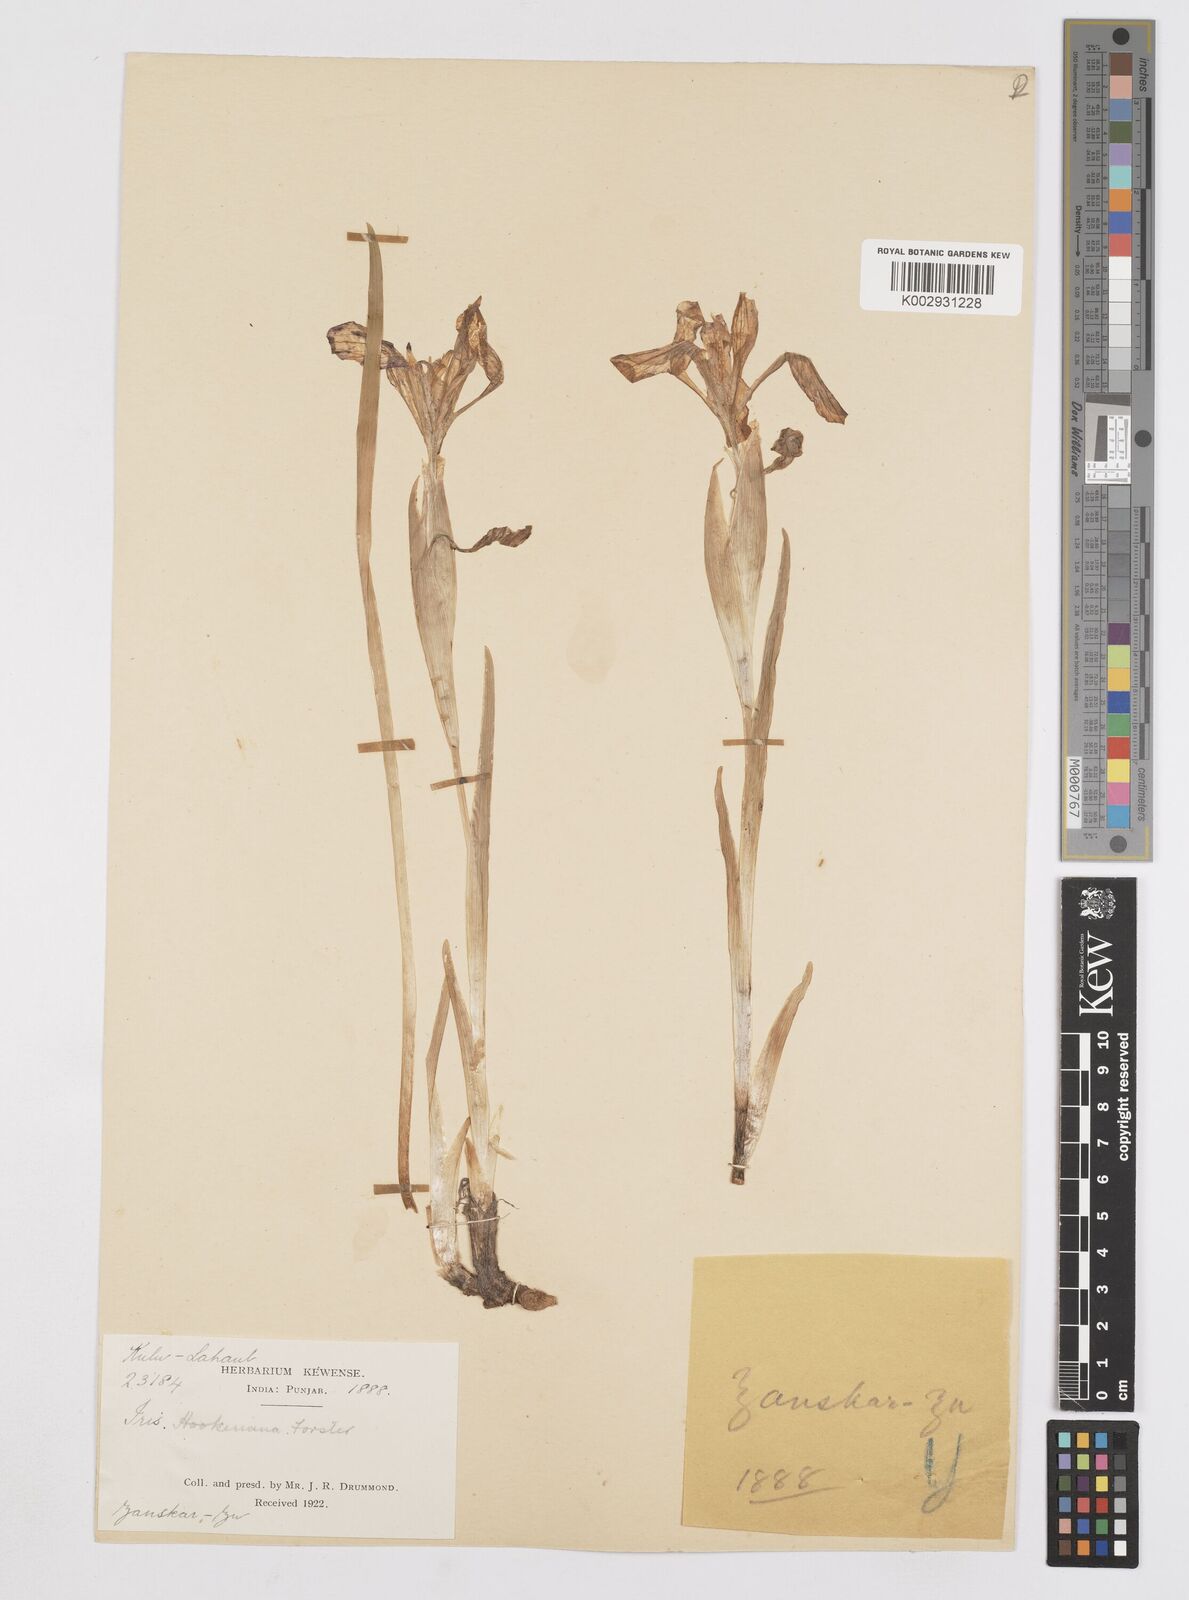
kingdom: Plantae
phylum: Tracheophyta
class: Liliopsida
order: Asparagales
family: Iridaceae
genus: Iris
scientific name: Iris hookeriana
